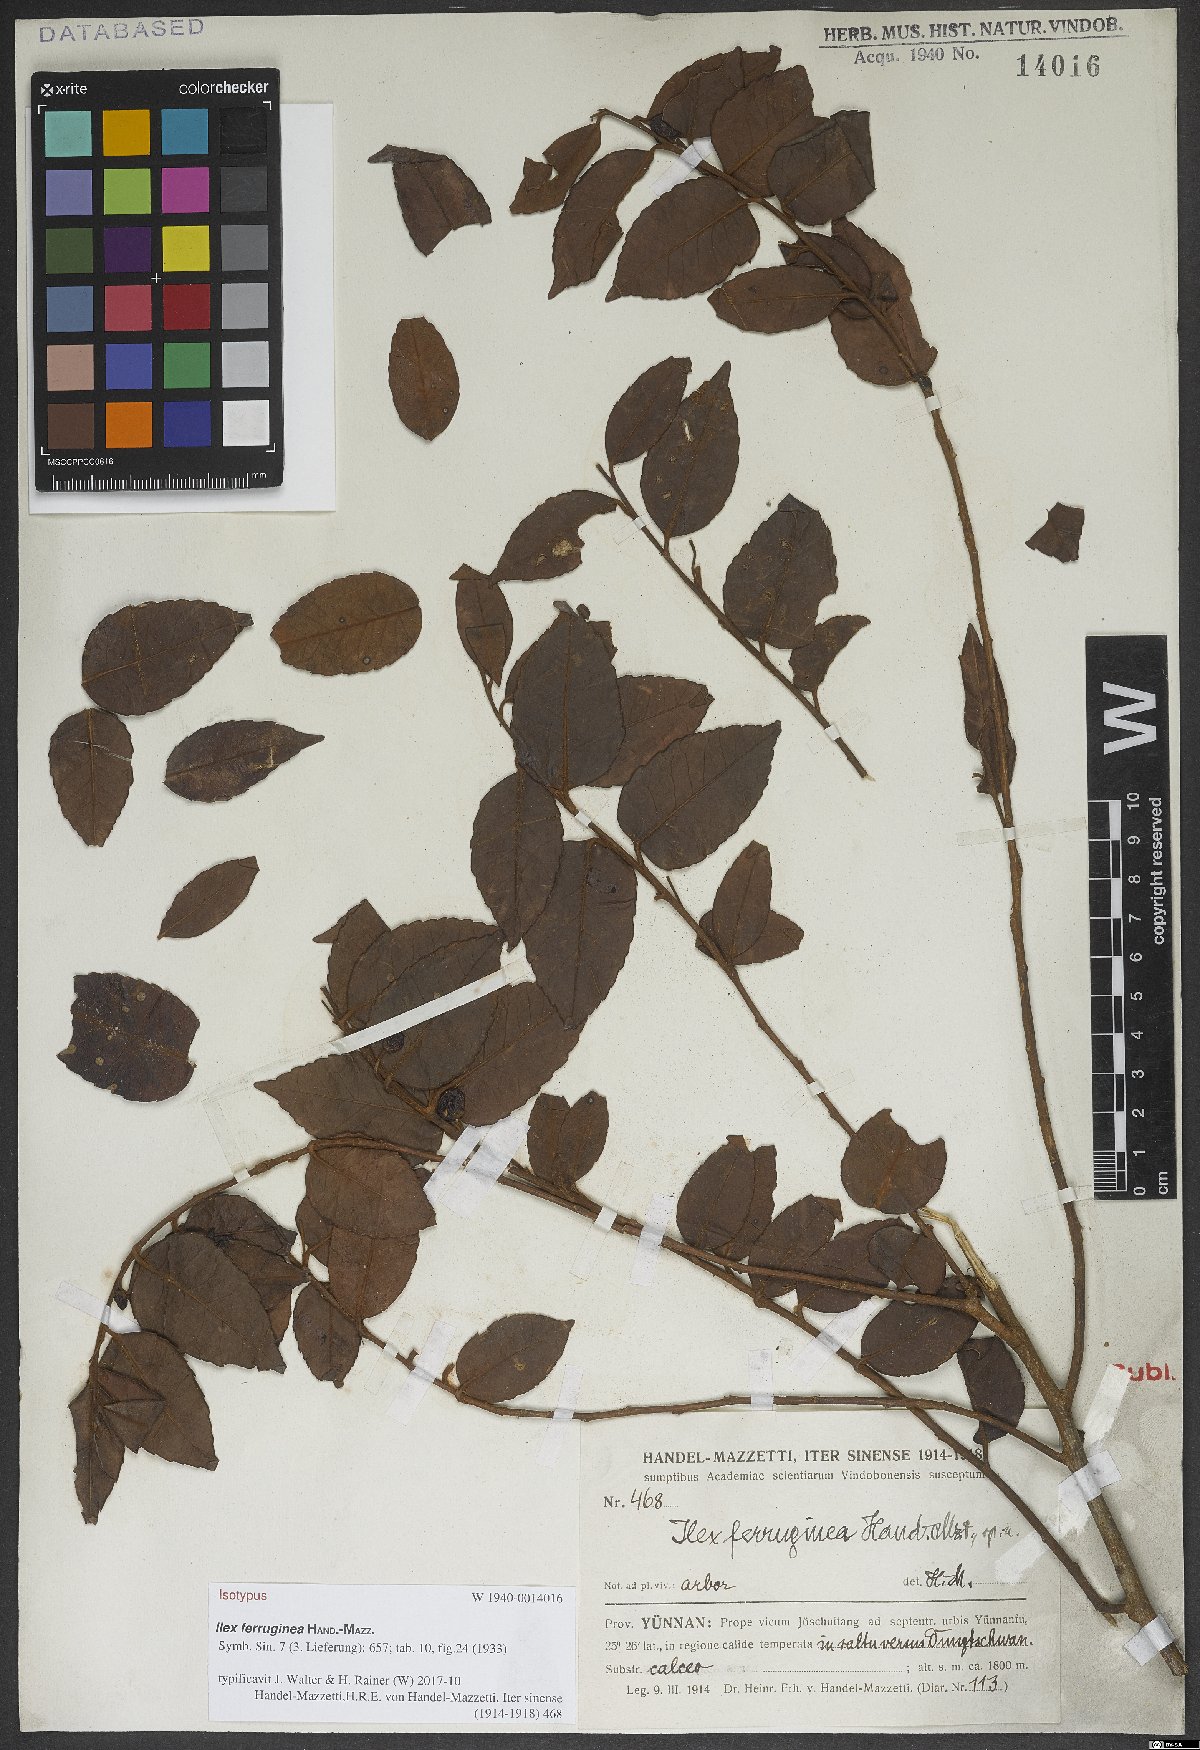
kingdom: Plantae
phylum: Tracheophyta
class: Magnoliopsida
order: Aquifoliales
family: Aquifoliaceae
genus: Ilex
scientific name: Ilex ferruginea
